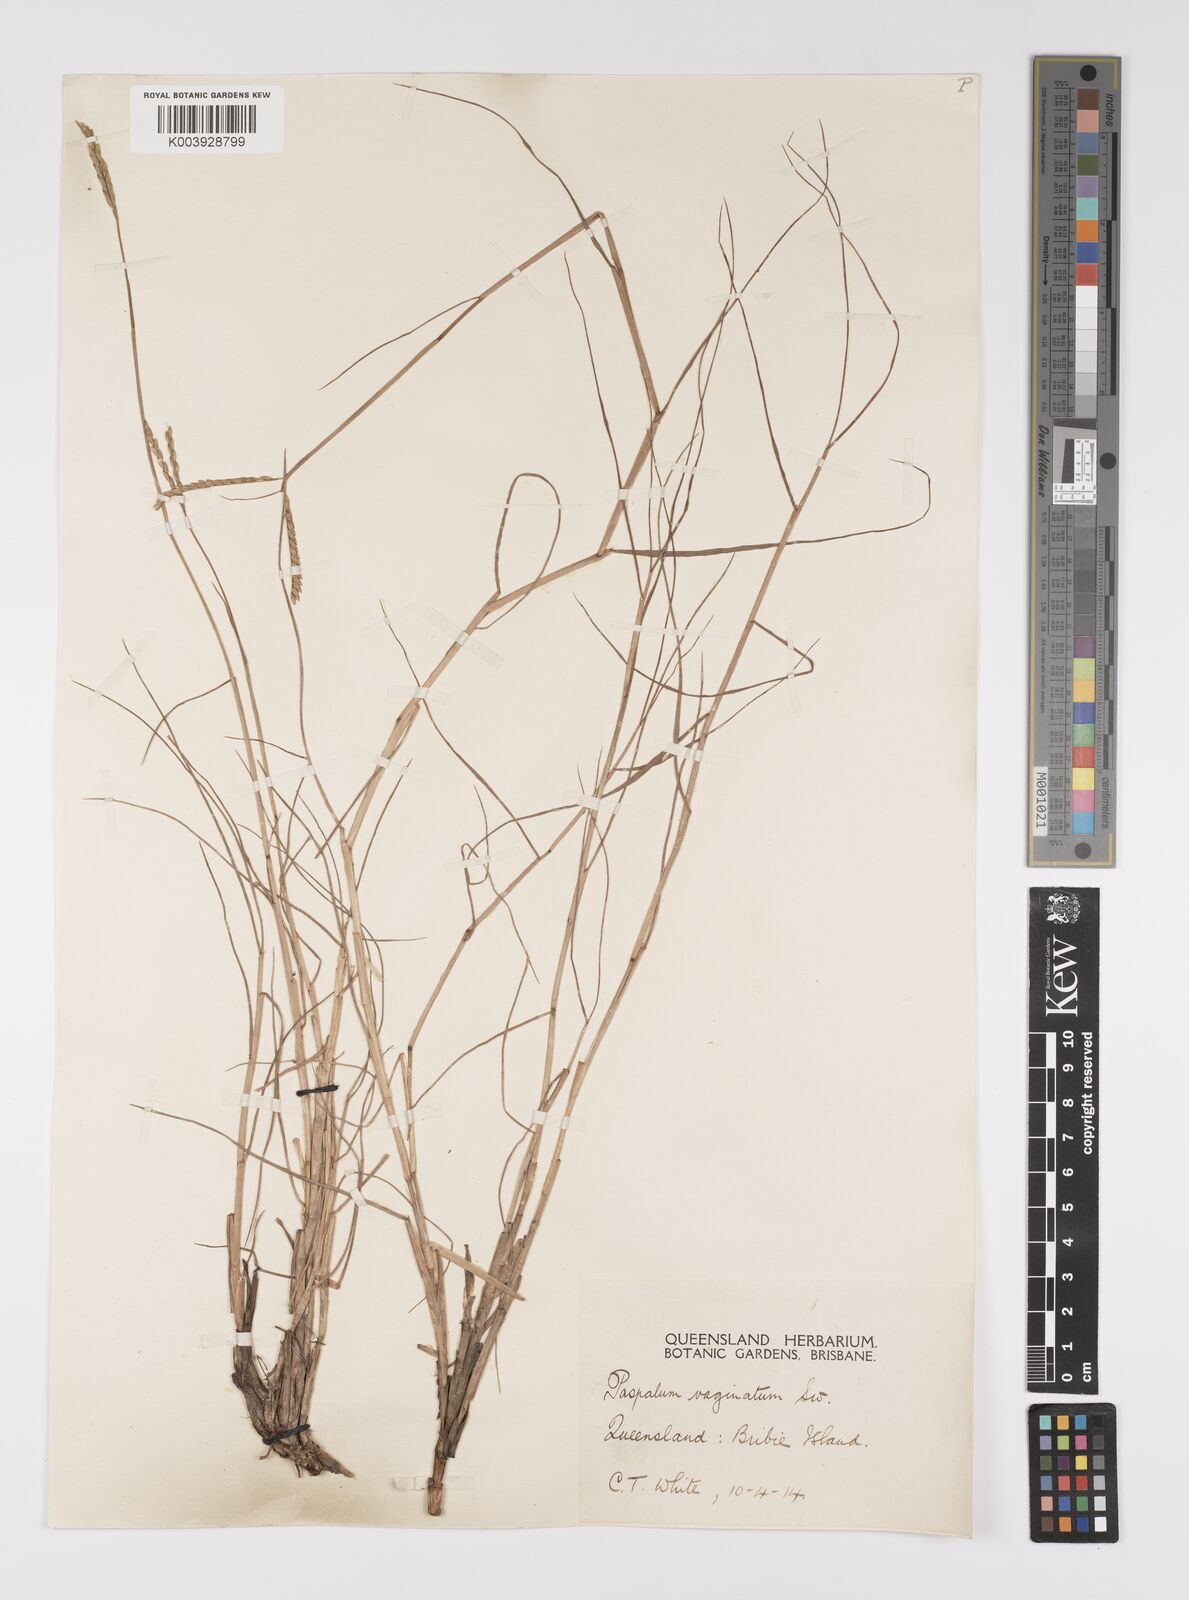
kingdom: Plantae
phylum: Tracheophyta
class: Liliopsida
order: Poales
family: Poaceae
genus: Paspalum
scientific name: Paspalum vaginatum
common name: Seashore paspalum
